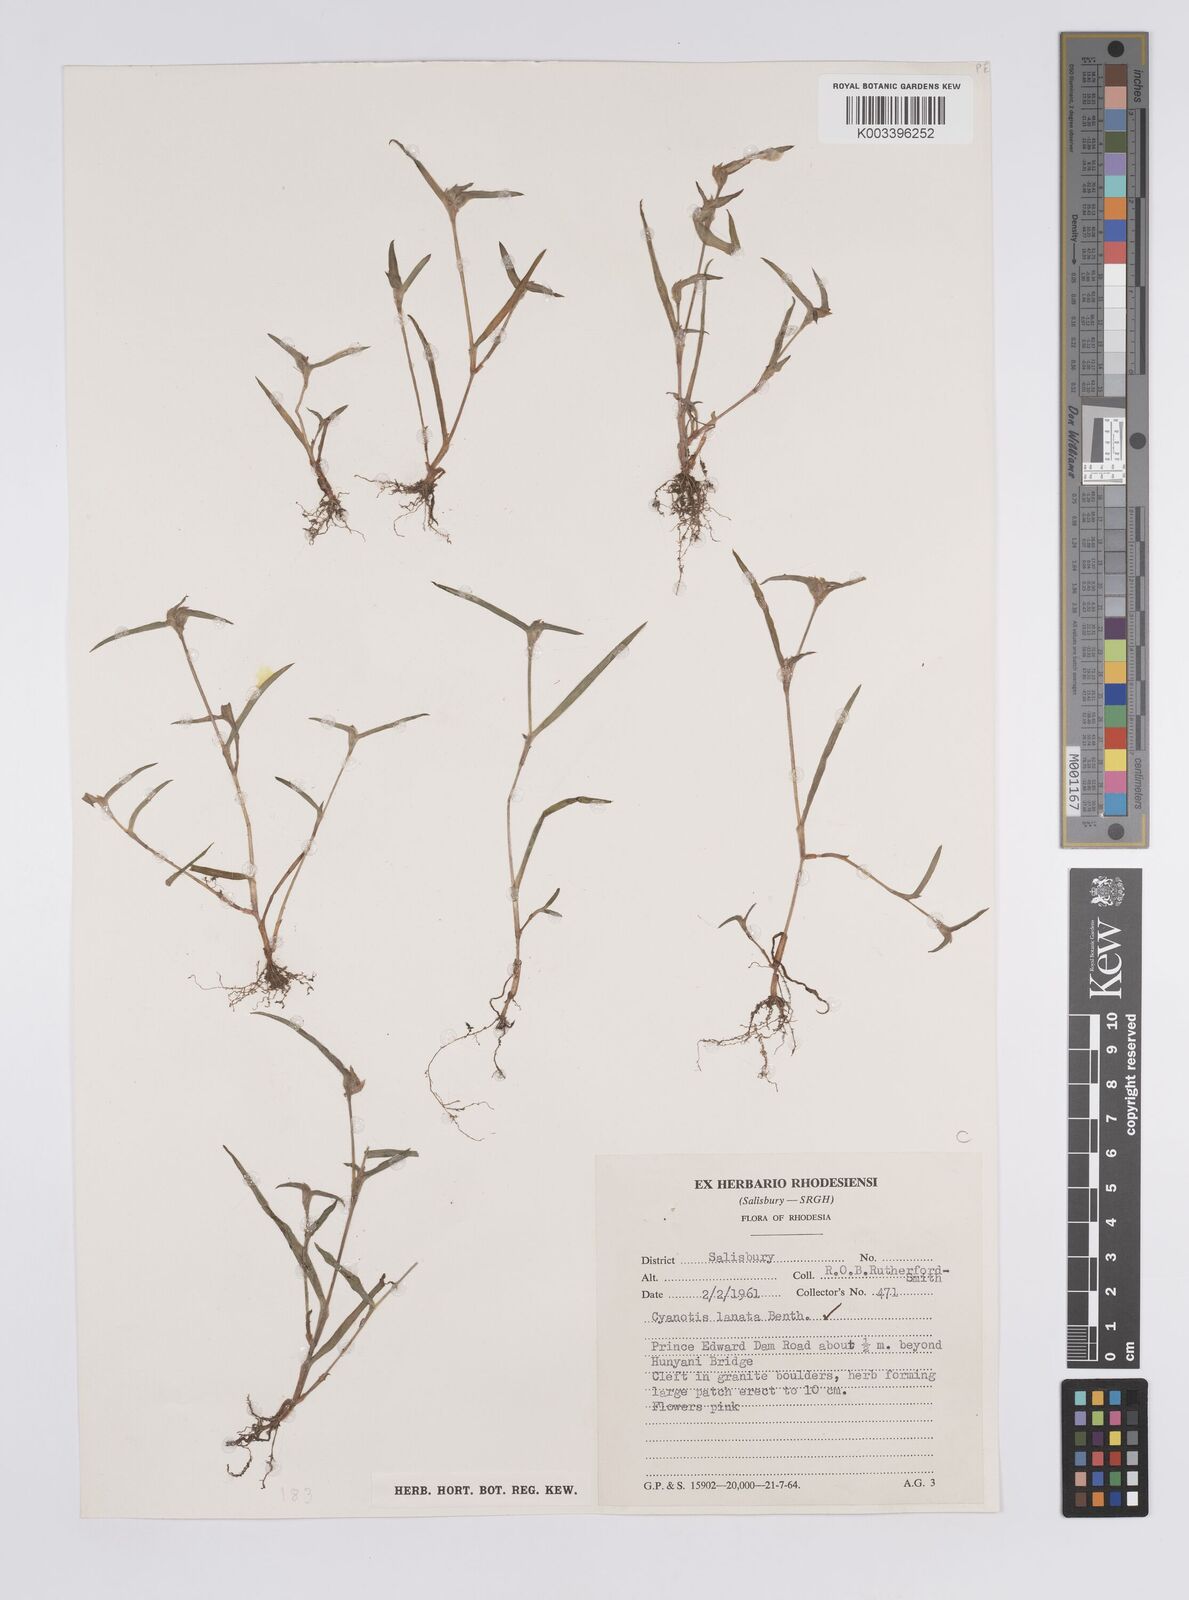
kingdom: Plantae
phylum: Tracheophyta
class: Liliopsida
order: Commelinales
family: Commelinaceae
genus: Cyanotis
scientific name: Cyanotis lanata
